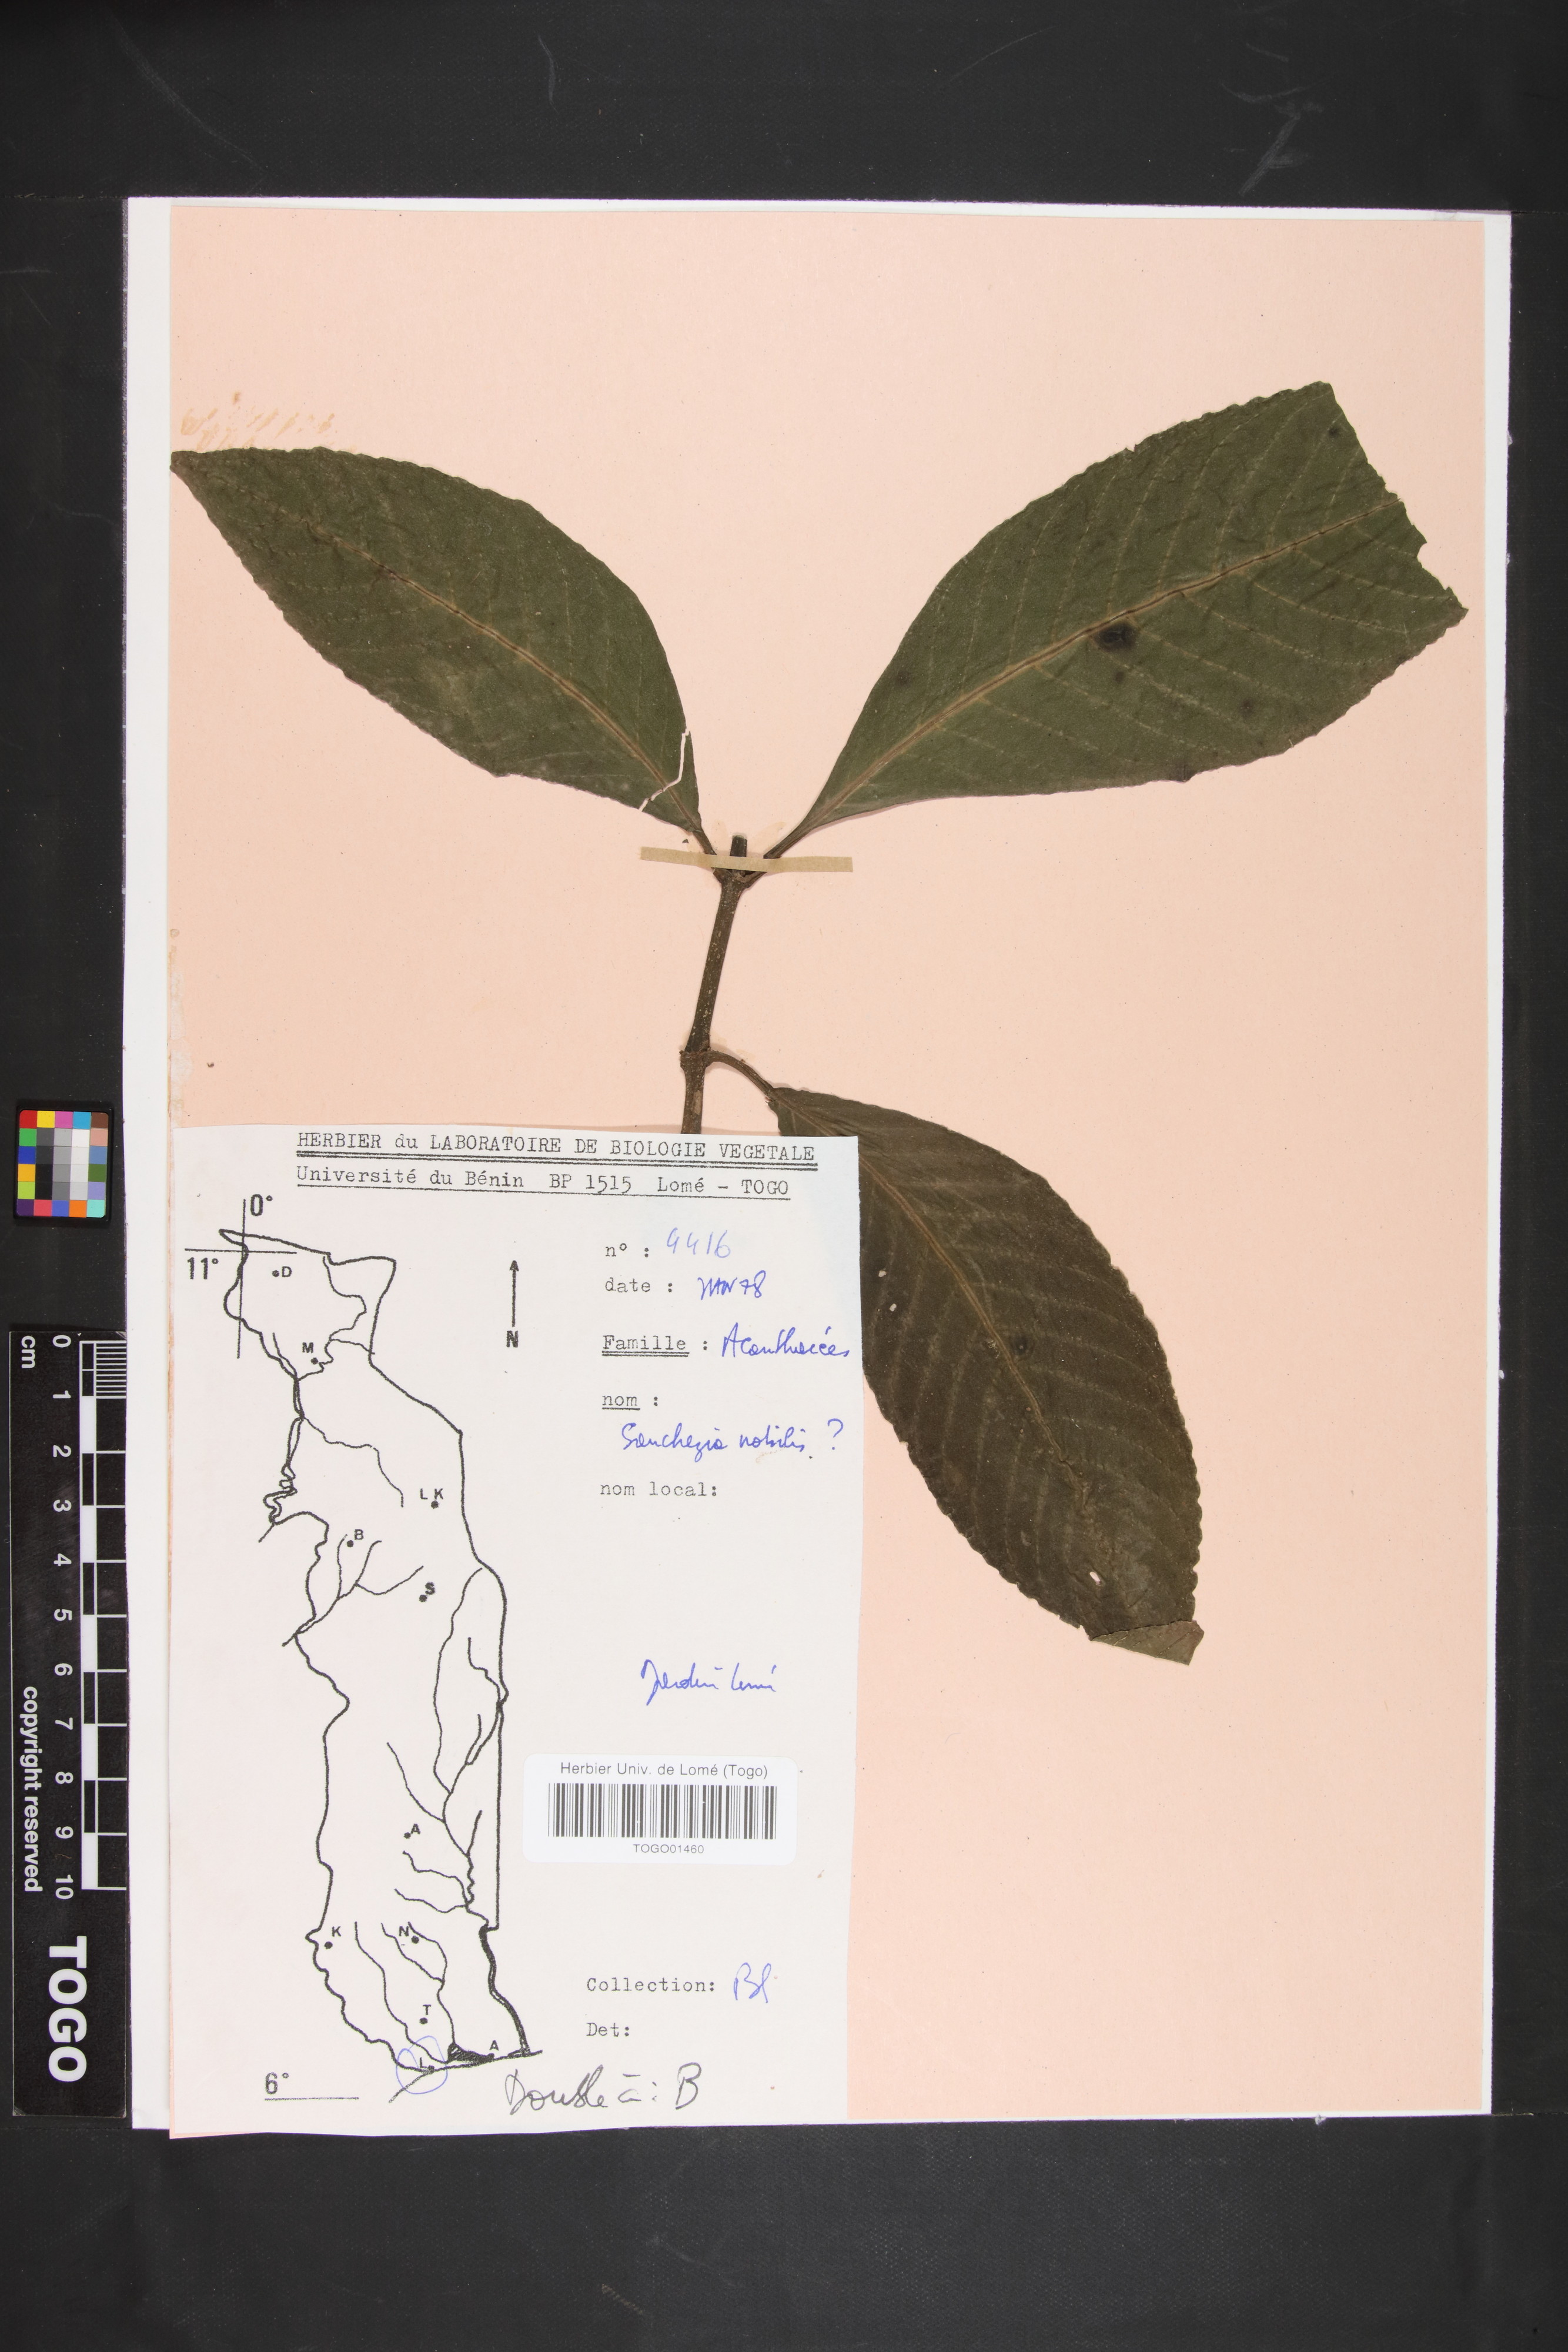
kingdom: Plantae
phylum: Tracheophyta
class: Magnoliopsida
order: Lamiales
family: Acanthaceae
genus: Sanchezia
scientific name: Sanchezia oblonga
